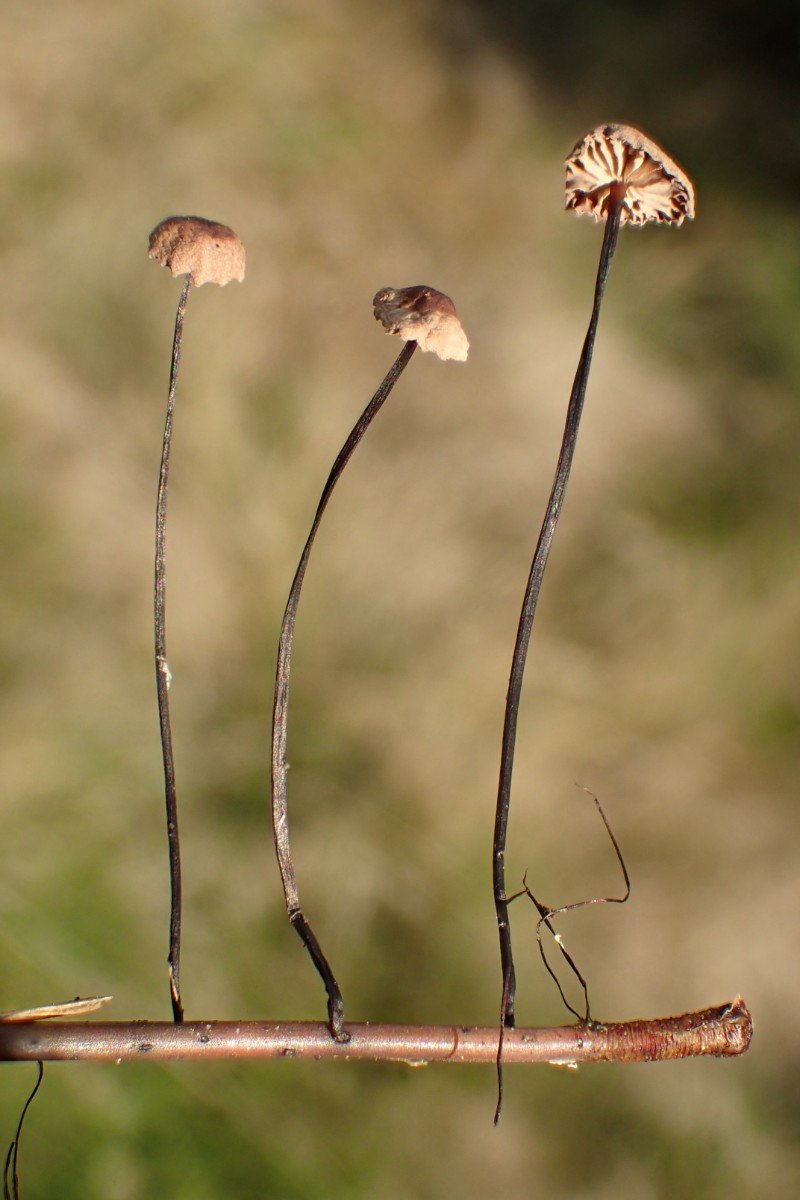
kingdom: Fungi
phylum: Basidiomycota
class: Agaricomycetes
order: Agaricales
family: Omphalotaceae
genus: Gymnopus
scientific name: Gymnopus androsaceus
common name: trådstokket fladhat
